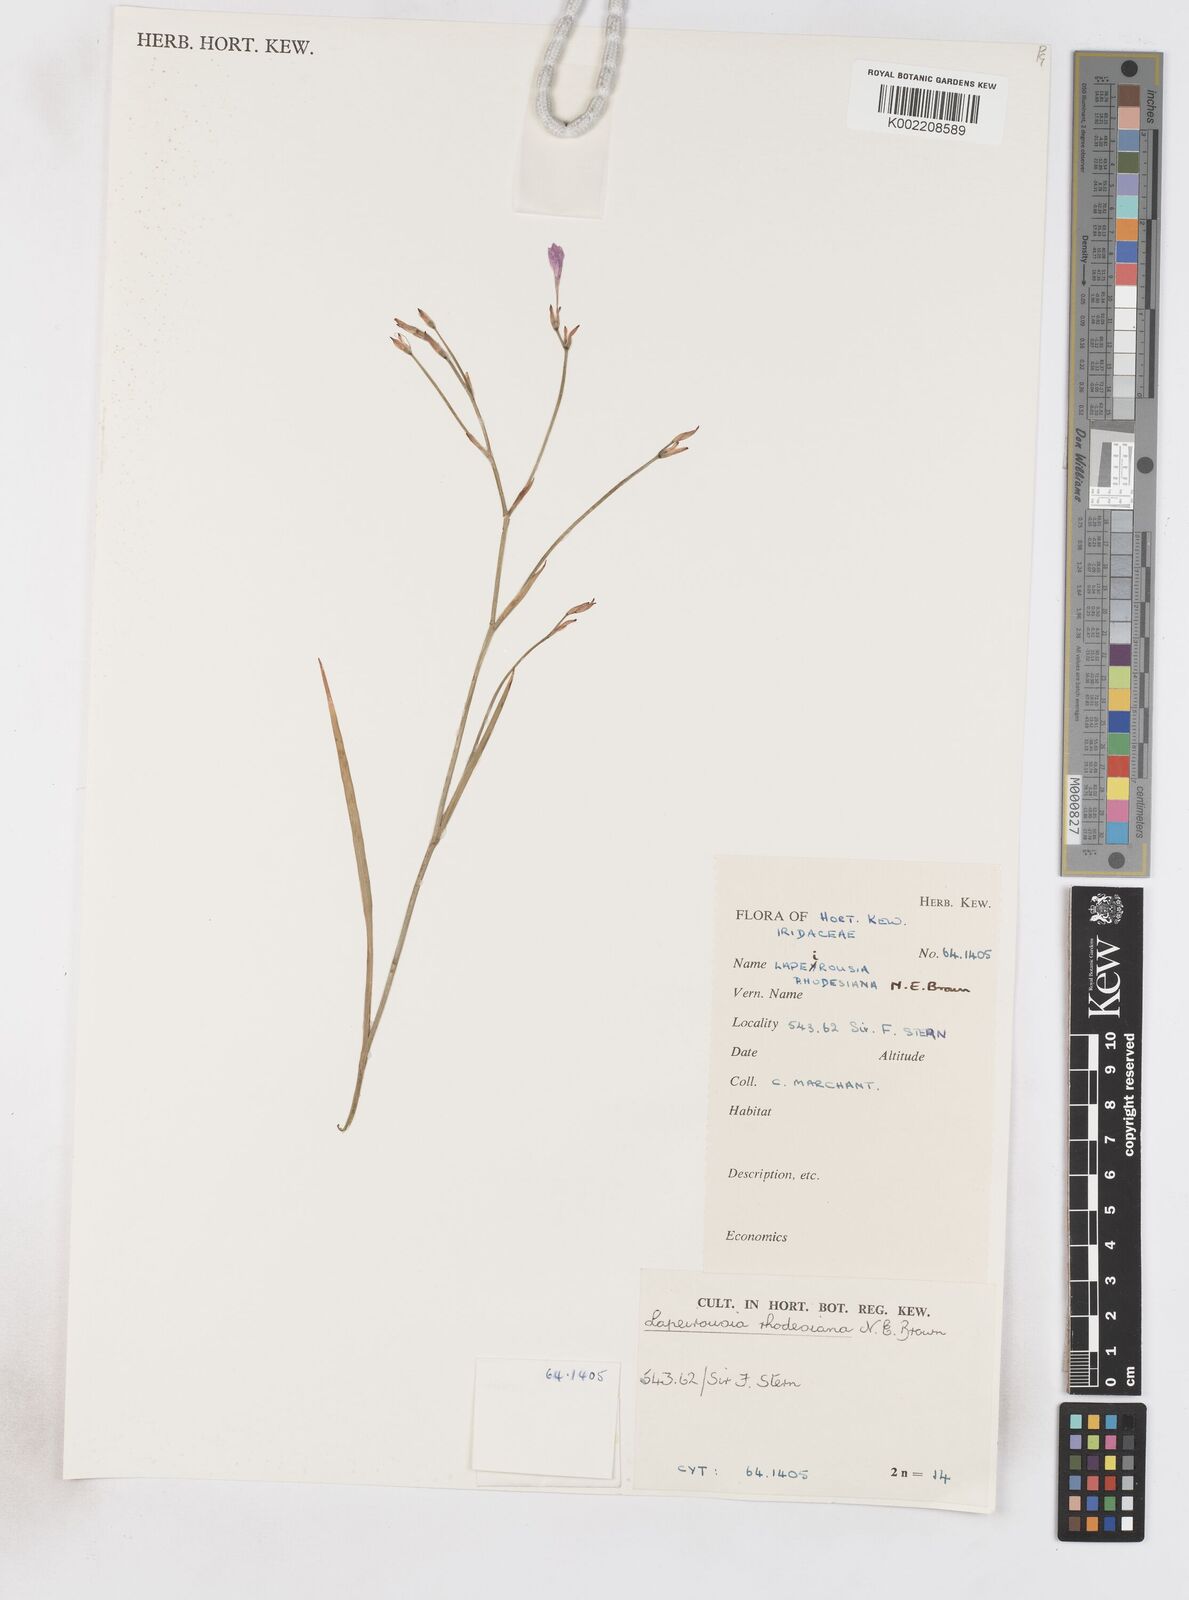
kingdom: Plantae
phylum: Tracheophyta
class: Liliopsida
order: Asparagales
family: Iridaceae
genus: Lapeirousia
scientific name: Lapeirousia
